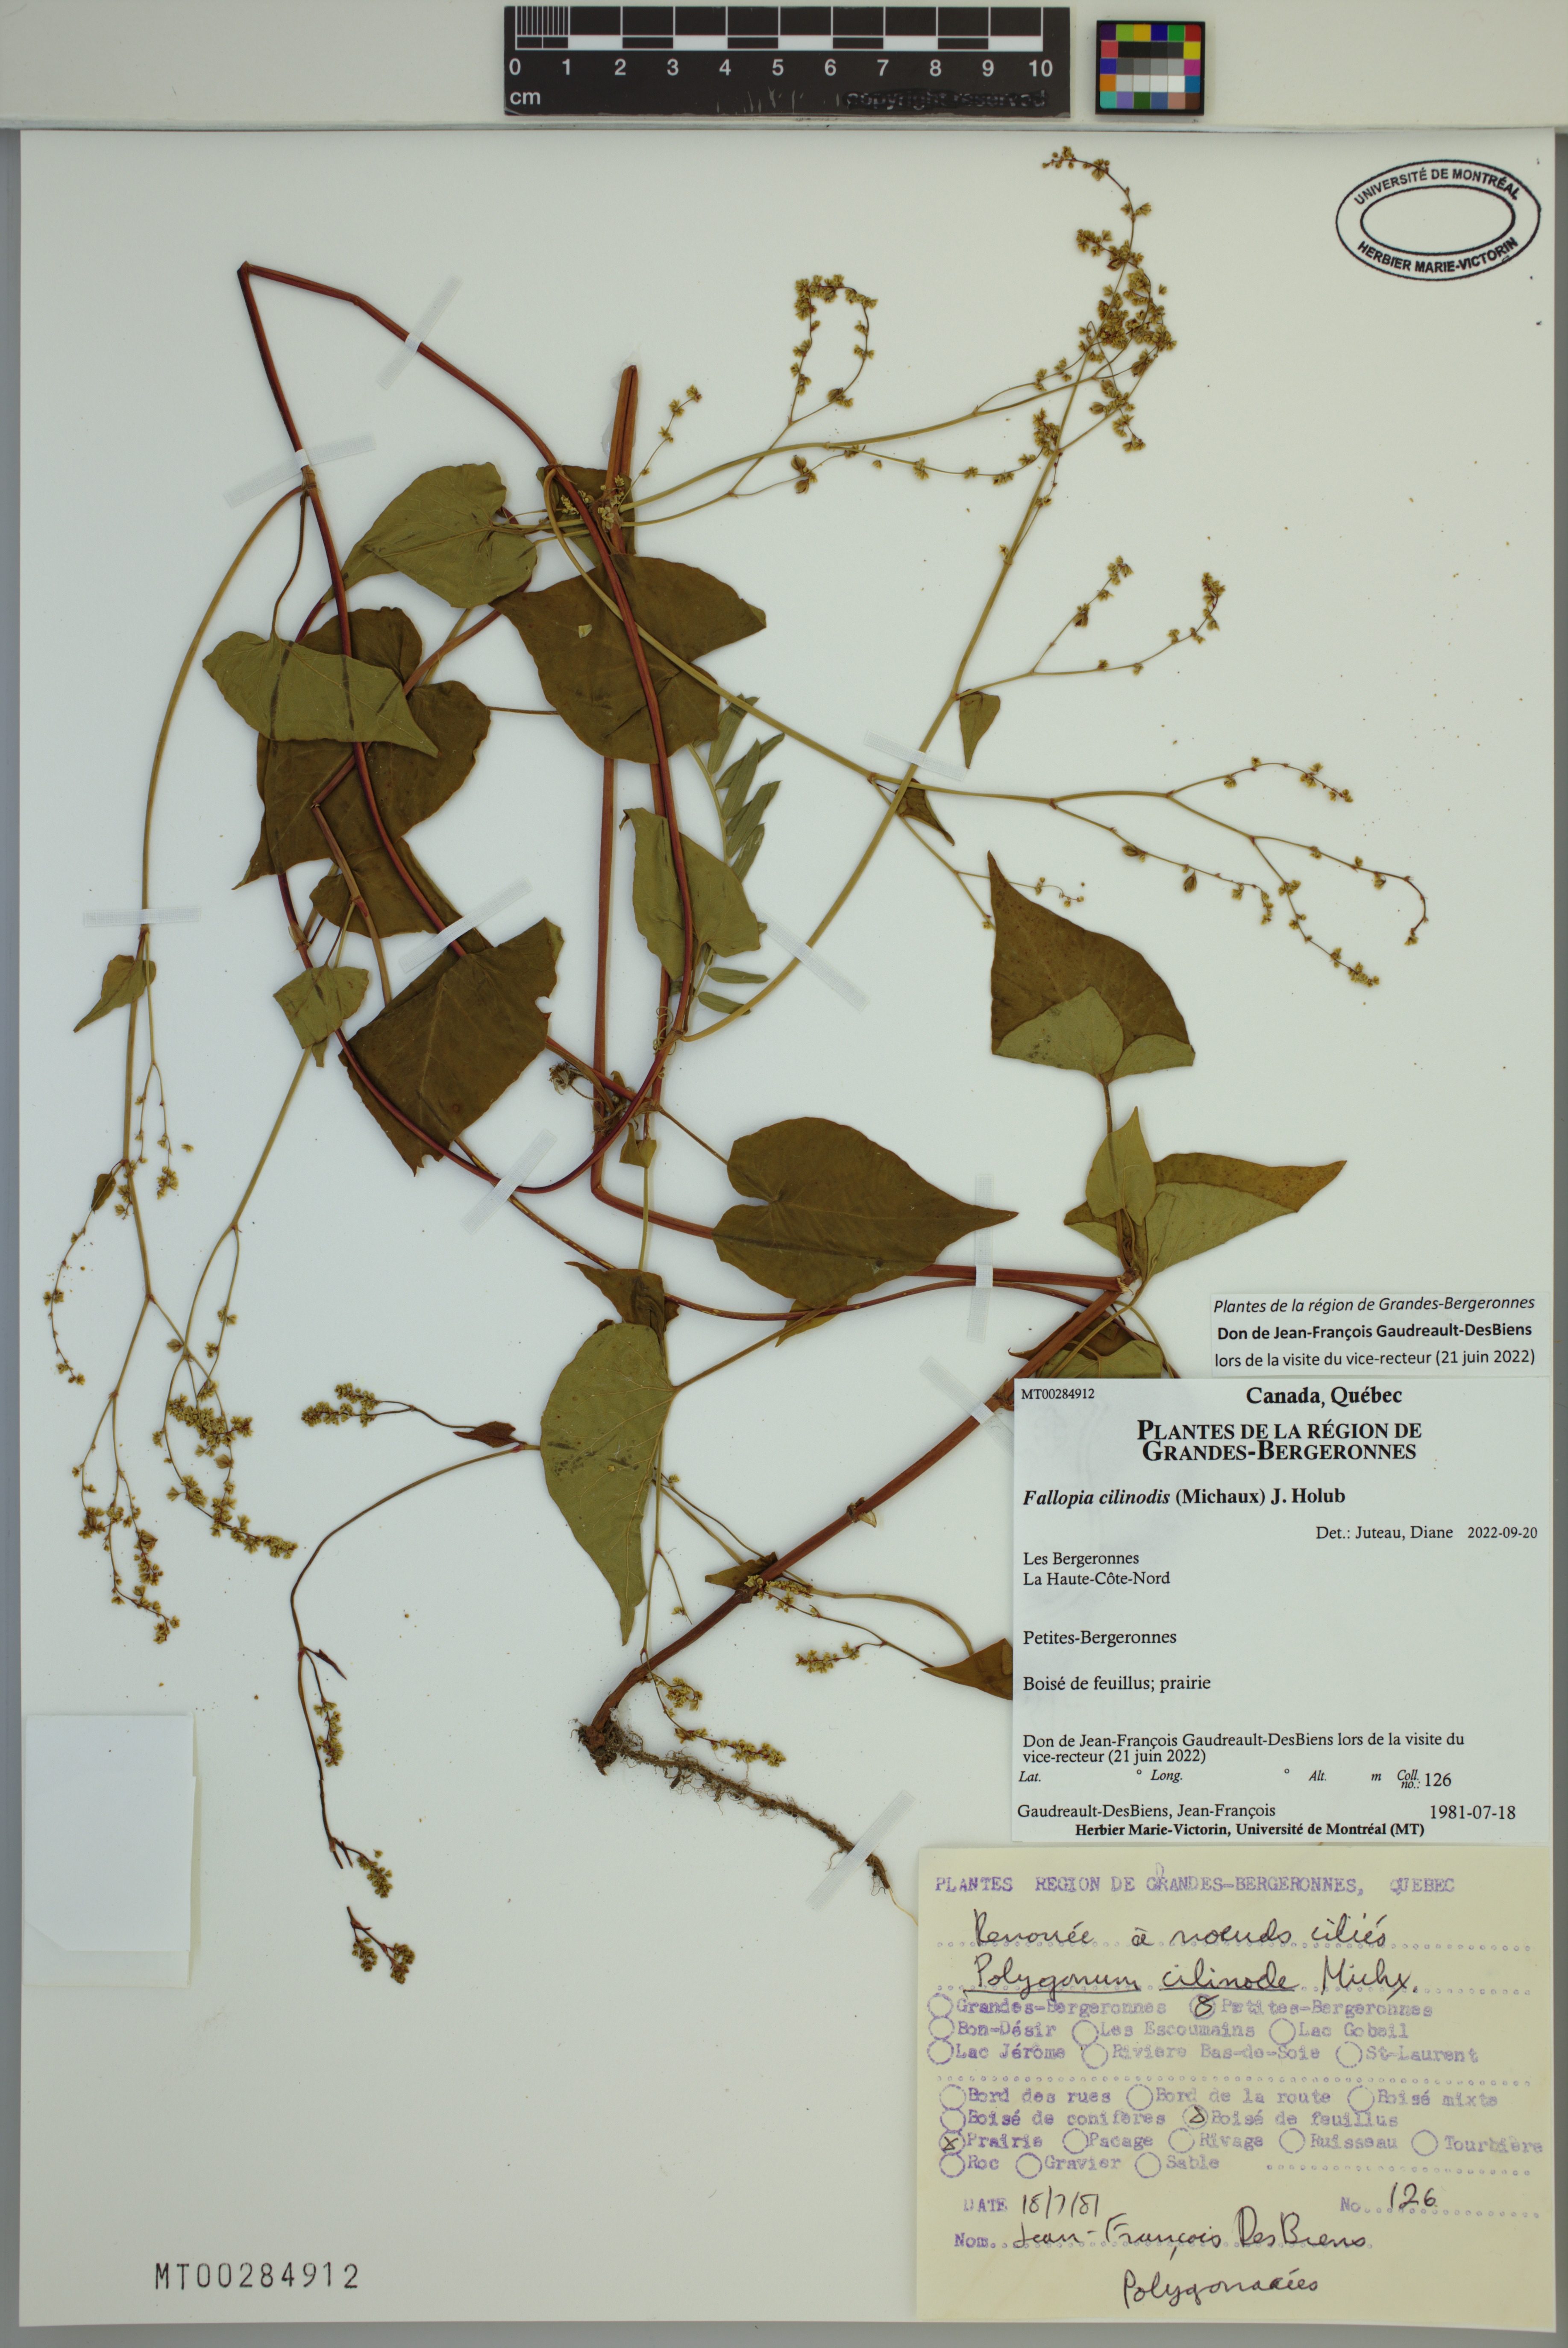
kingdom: Plantae
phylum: Tracheophyta
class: Magnoliopsida
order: Caryophyllales
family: Polygonaceae
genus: Parogonum
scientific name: Parogonum ciliinode
